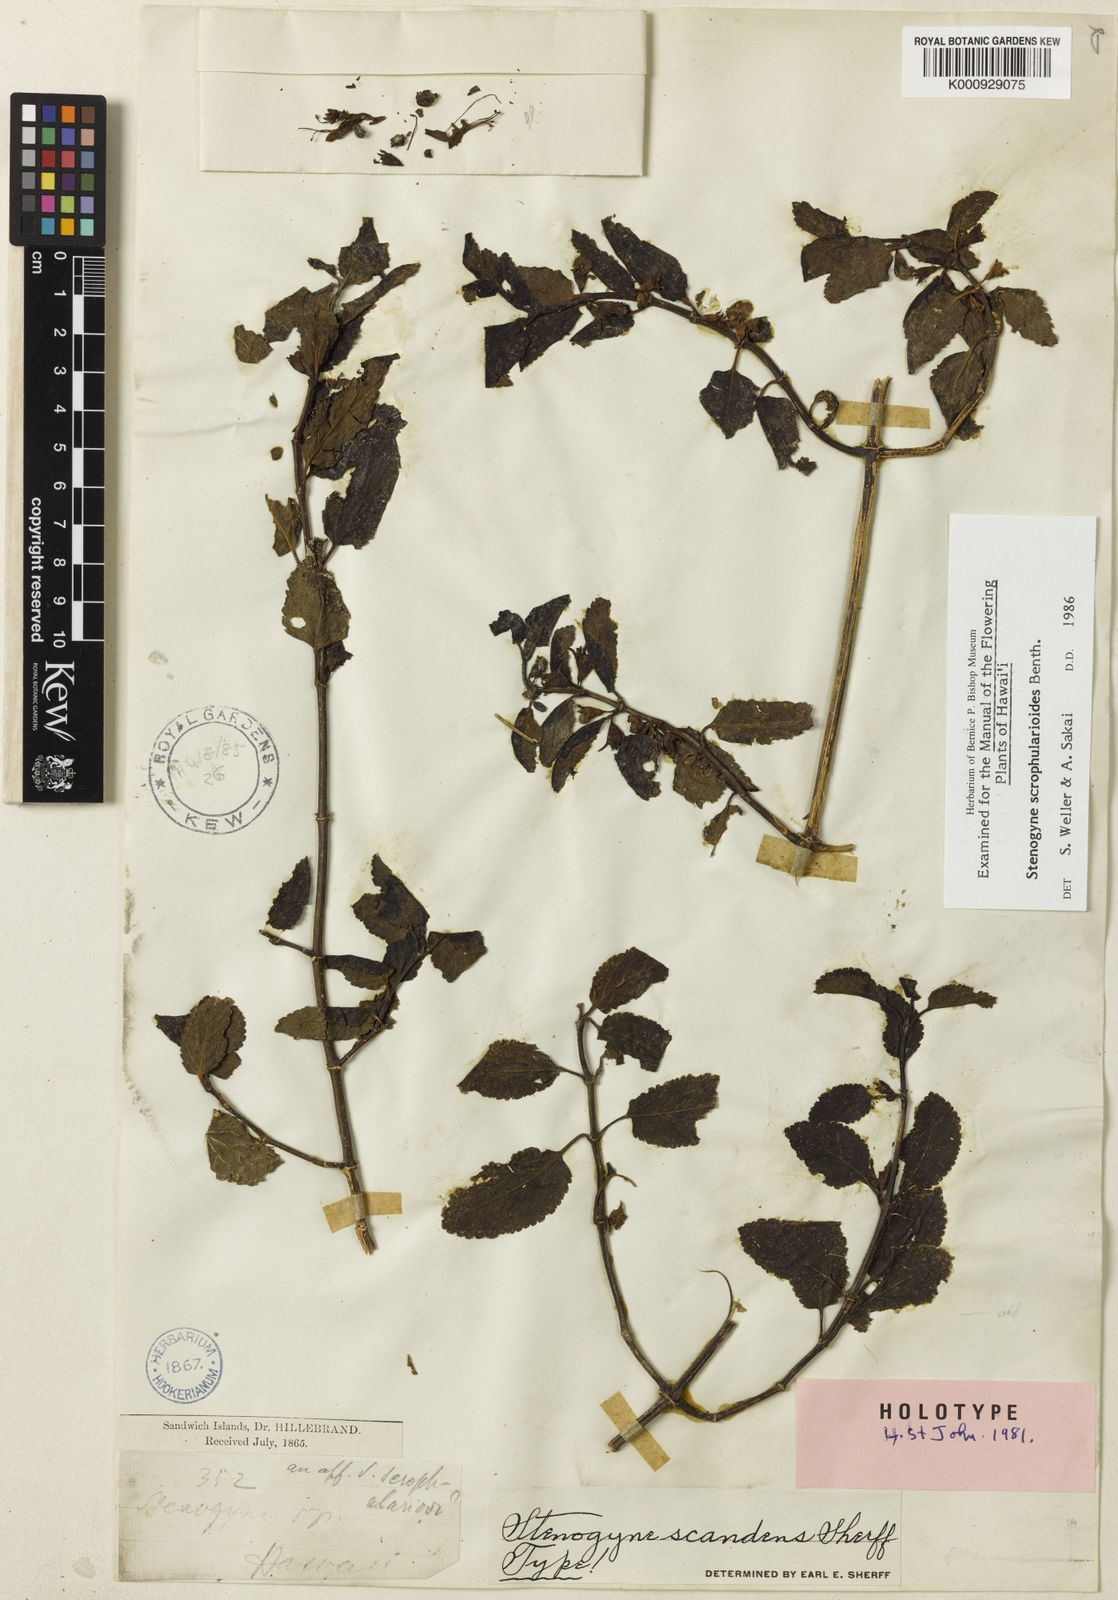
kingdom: Plantae
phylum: Tracheophyta
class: Magnoliopsida
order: Lamiales
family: Lamiaceae
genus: Stenogyne
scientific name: Stenogyne scrophularioides
